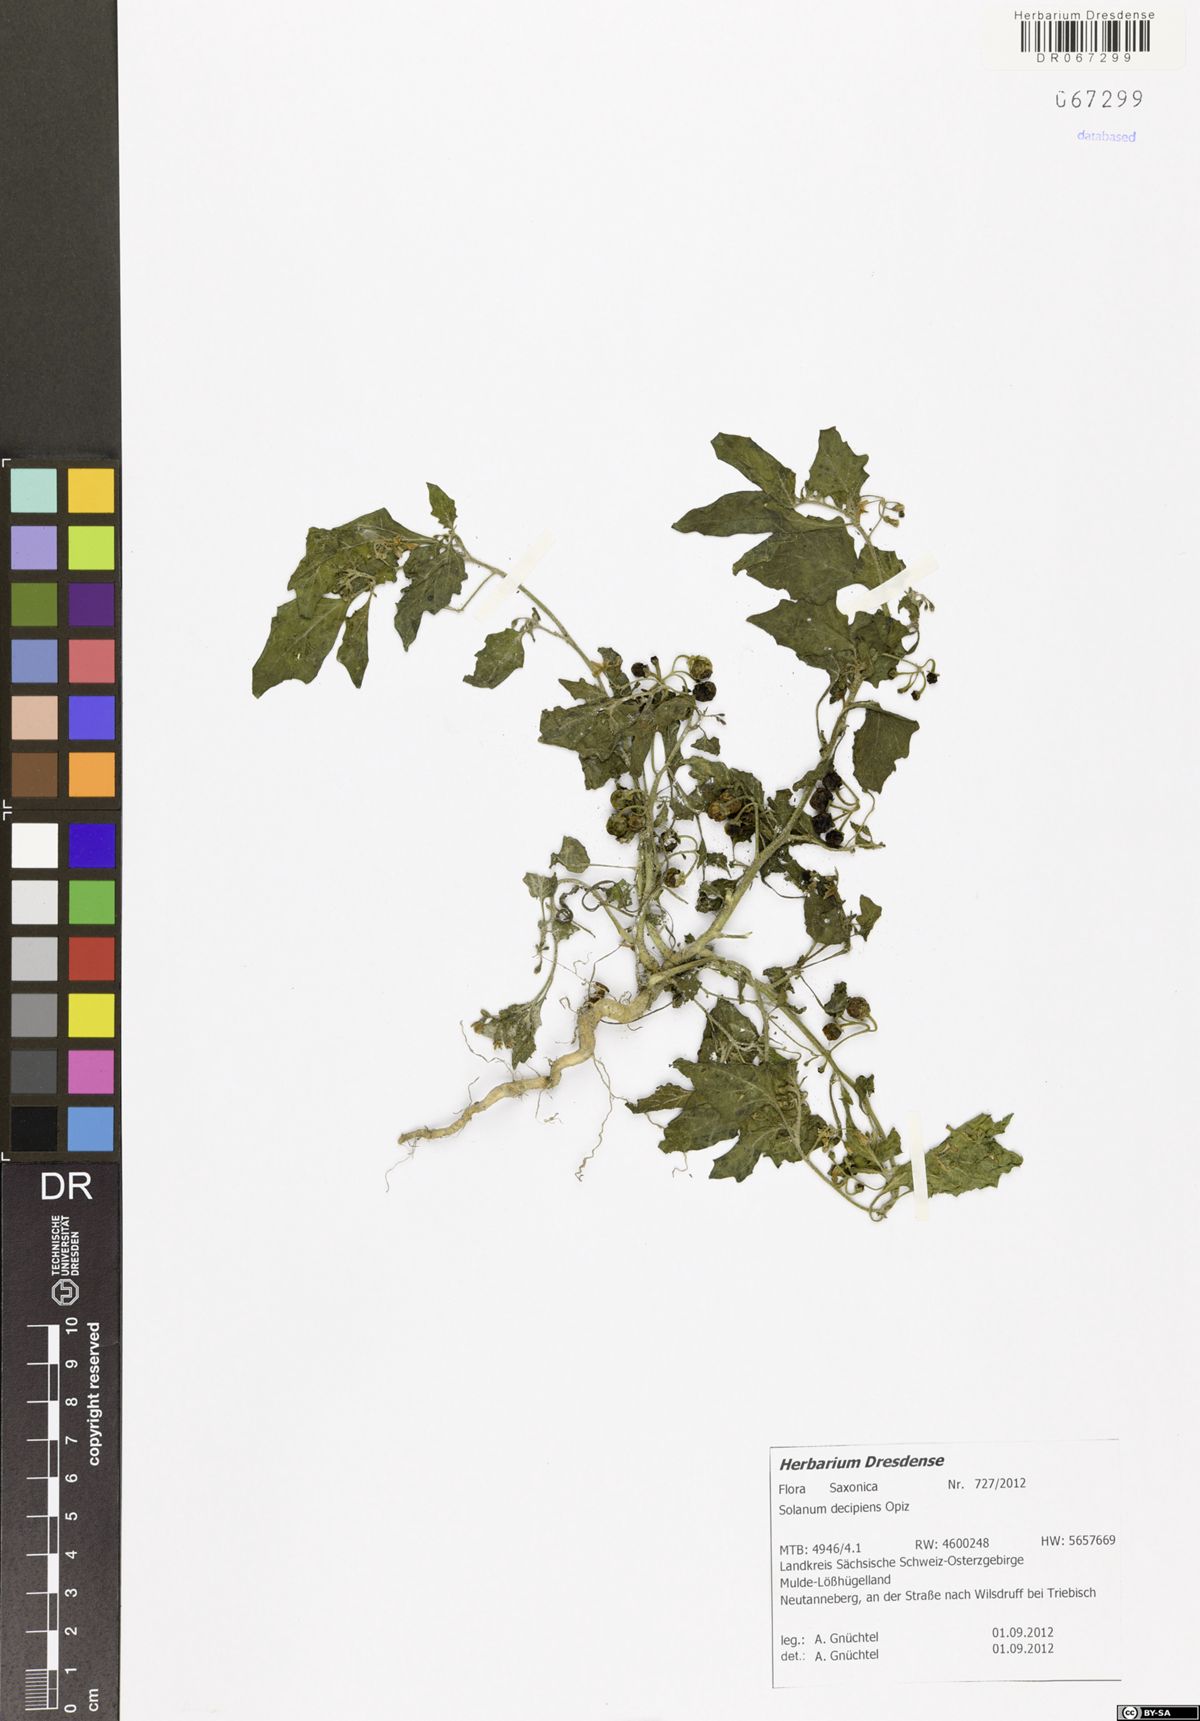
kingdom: Plantae
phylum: Tracheophyta
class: Magnoliopsida
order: Solanales
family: Solanaceae
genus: Solanum
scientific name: Solanum decipiens
